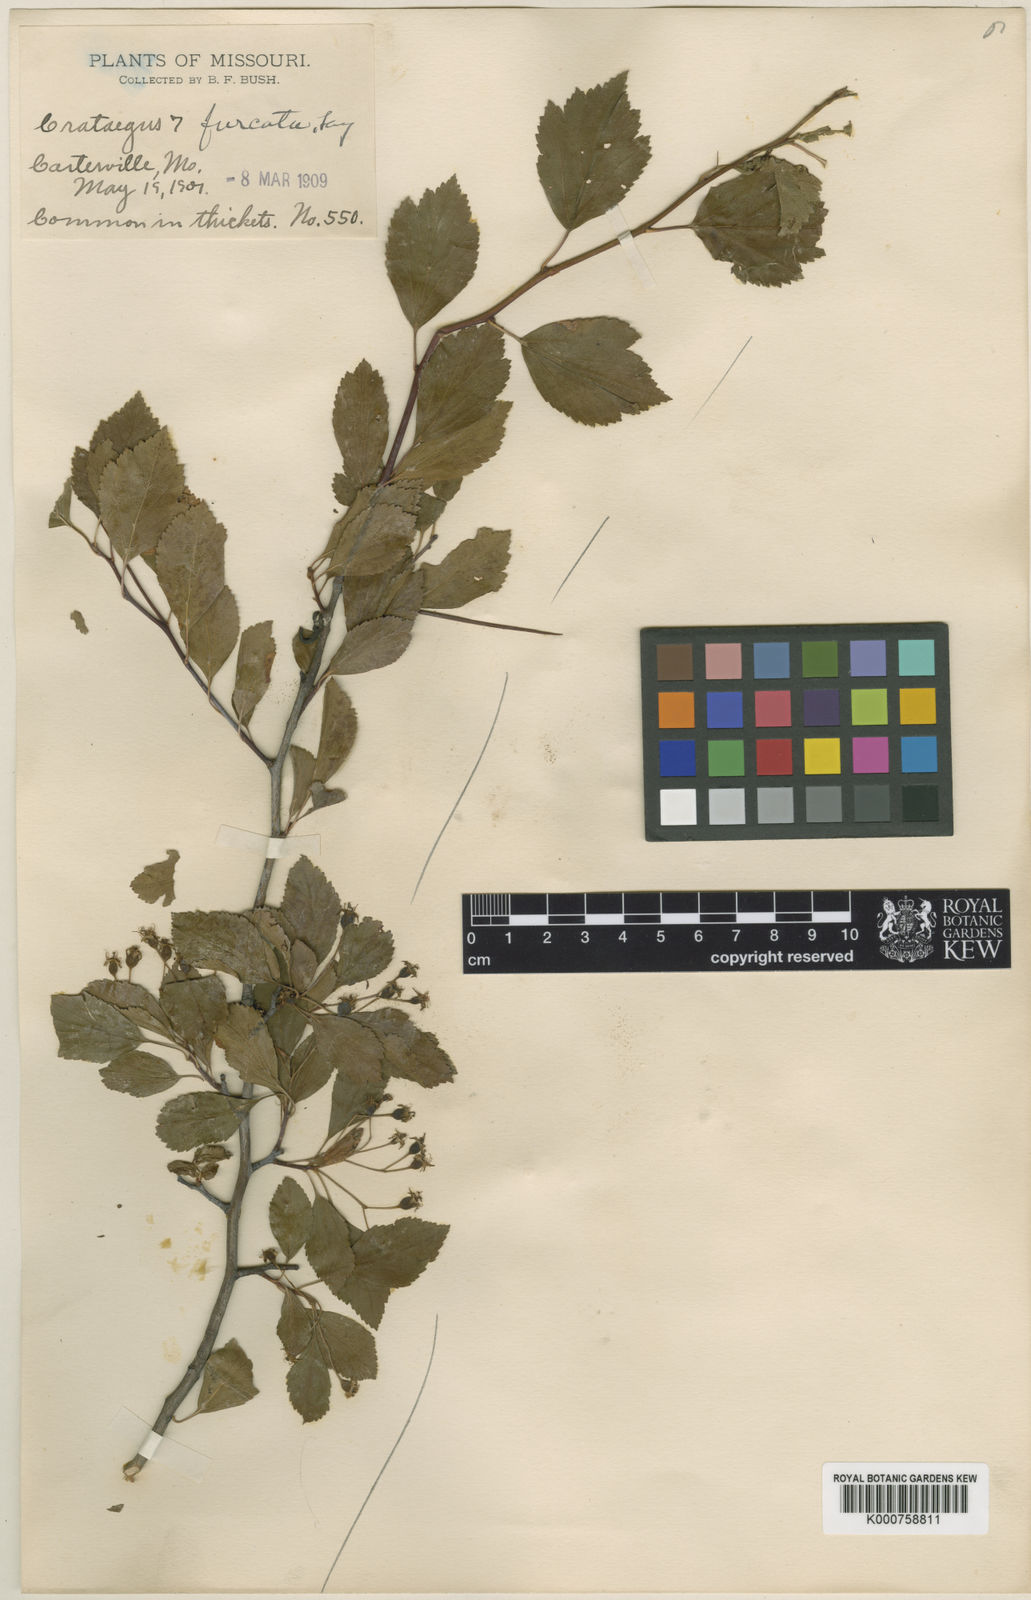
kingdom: Plantae
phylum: Tracheophyta
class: Magnoliopsida
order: Rosales
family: Rosaceae
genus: Crataegus
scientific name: Crataegus viridis
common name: Southernthorn
